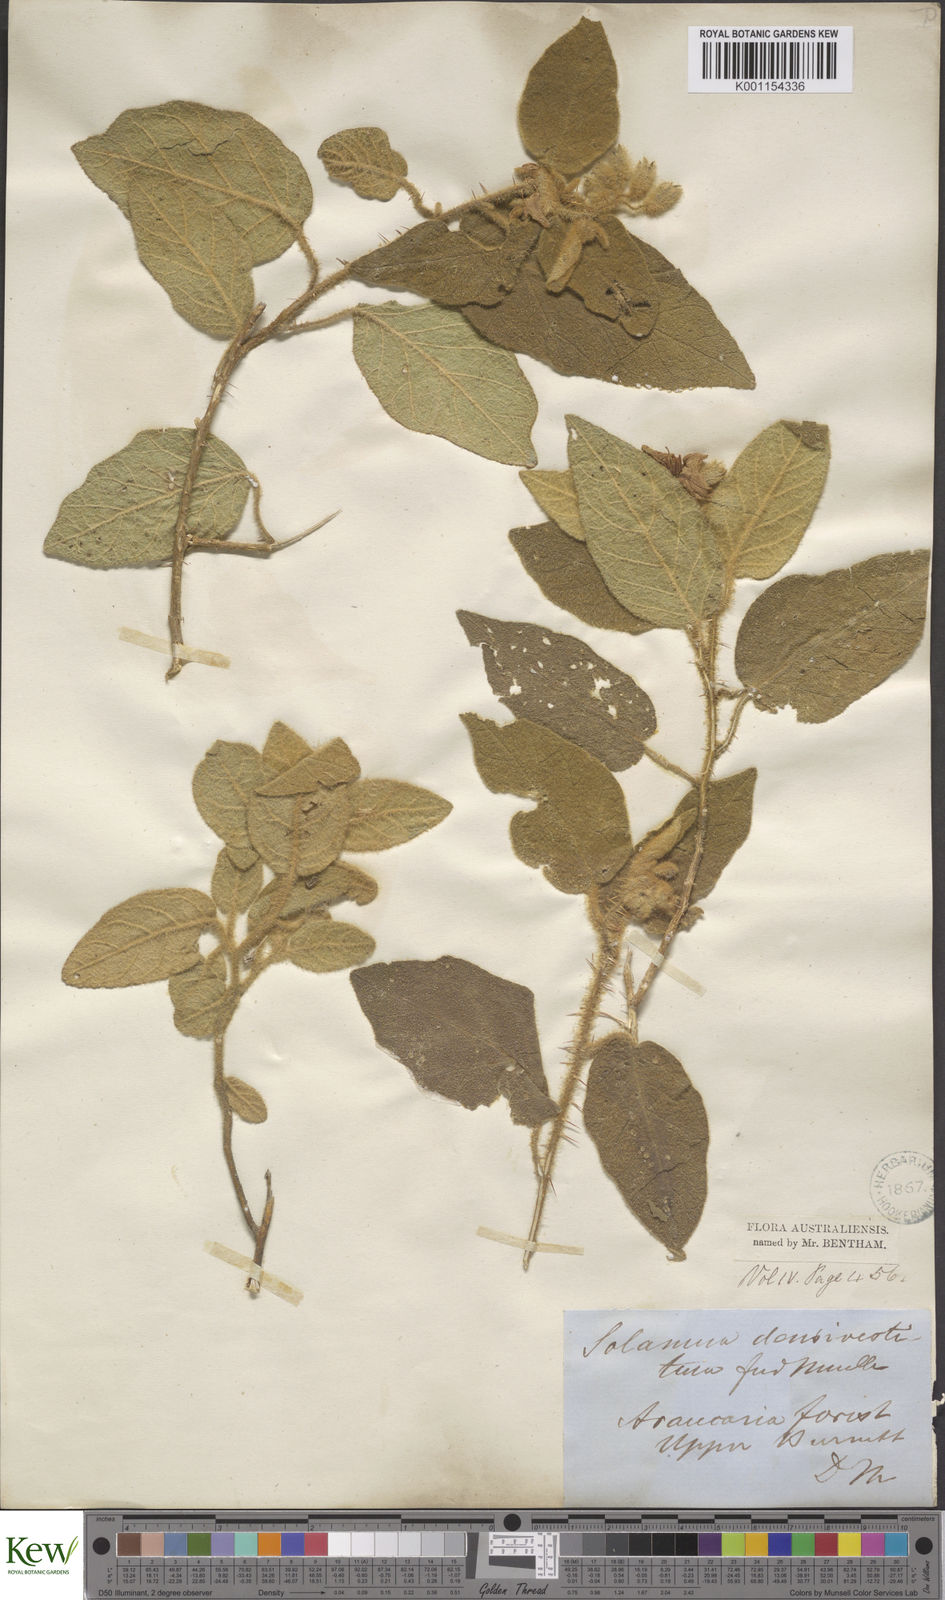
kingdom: Plantae
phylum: Tracheophyta
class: Magnoliopsida
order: Solanales
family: Solanaceae
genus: Solanum
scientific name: Solanum densevestitum
